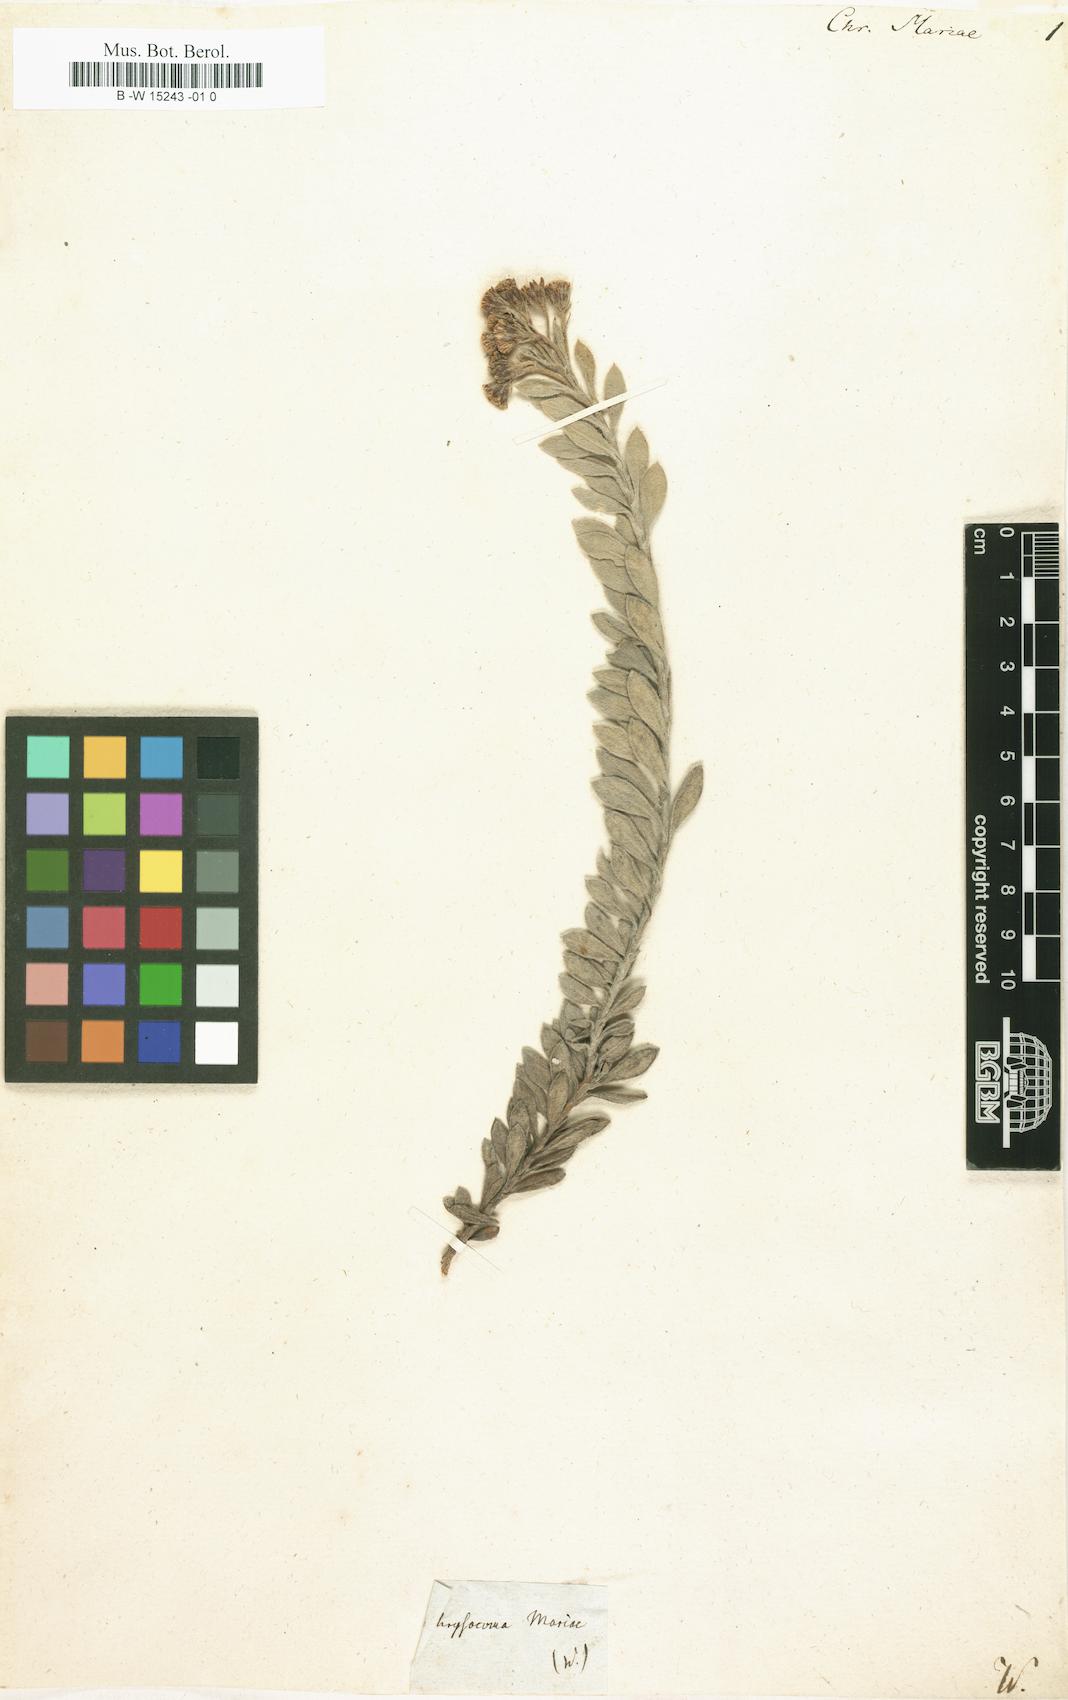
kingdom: Plantae
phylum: Tracheophyta
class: Magnoliopsida
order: Asterales
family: Asteraceae
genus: Chrysocoma
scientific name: Chrysocoma
